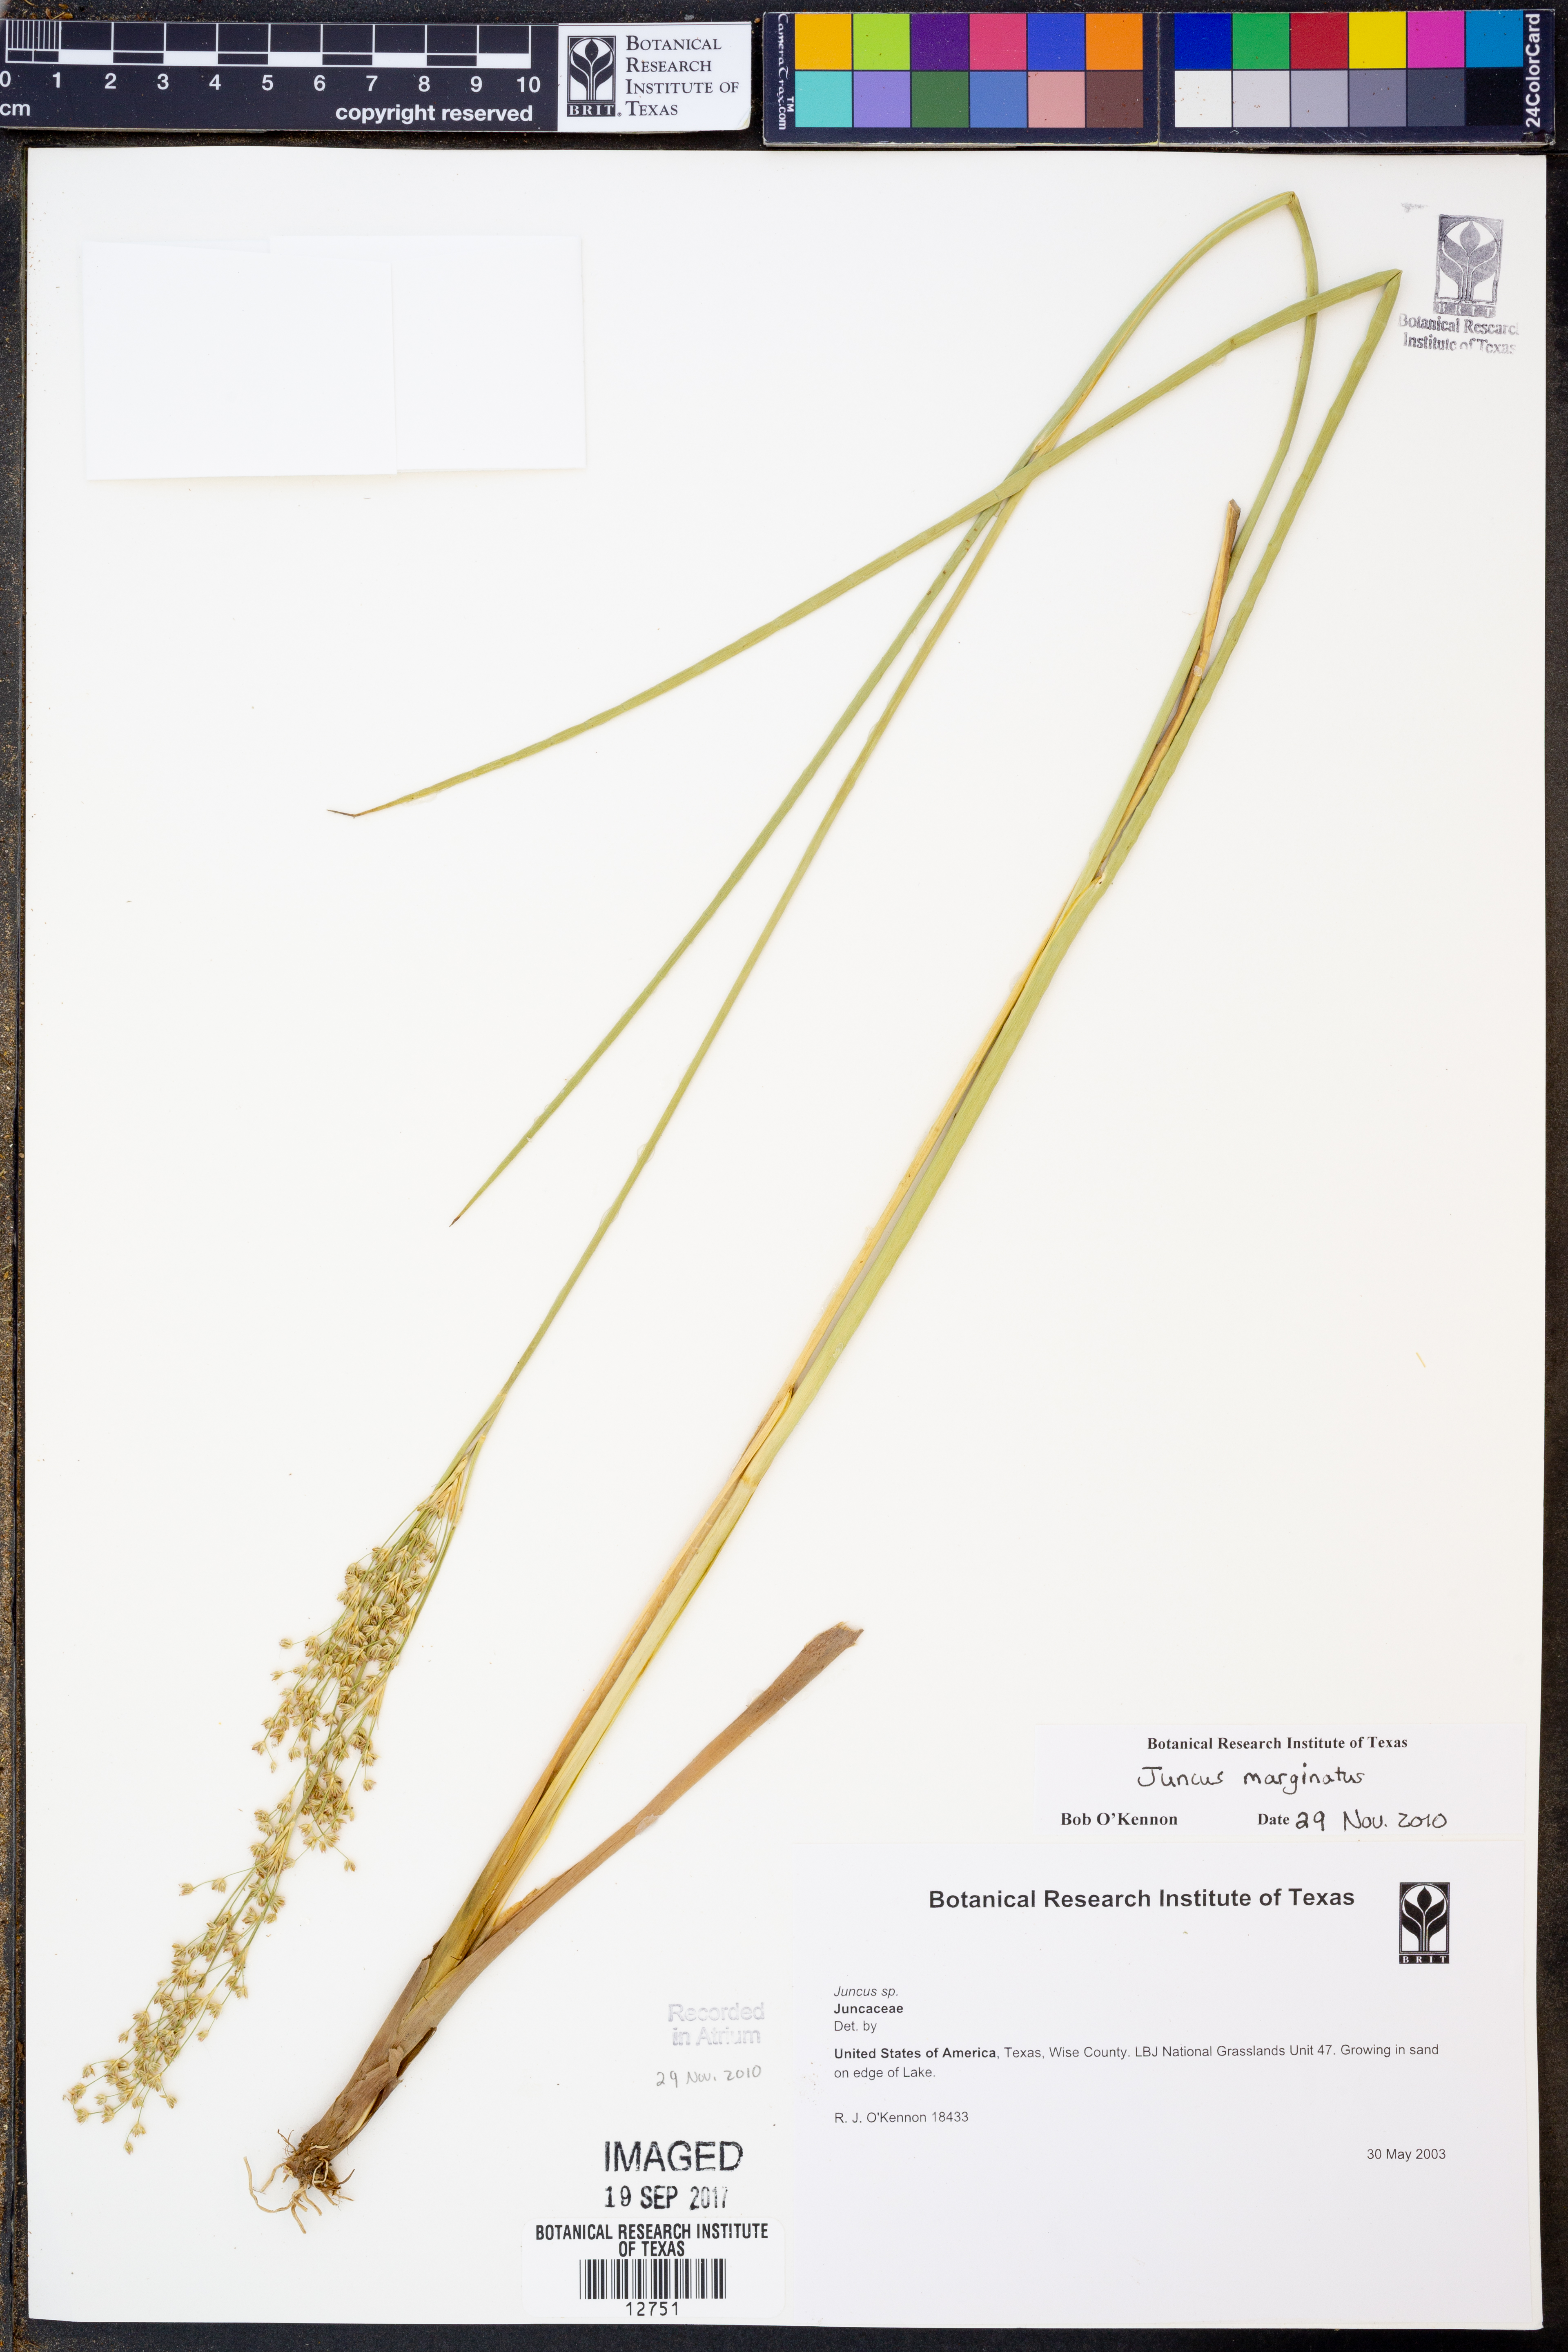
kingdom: Plantae
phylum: Tracheophyta
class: Liliopsida
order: Poales
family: Juncaceae
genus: Juncus
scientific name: Juncus marginatus
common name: Grass-leaf rush
